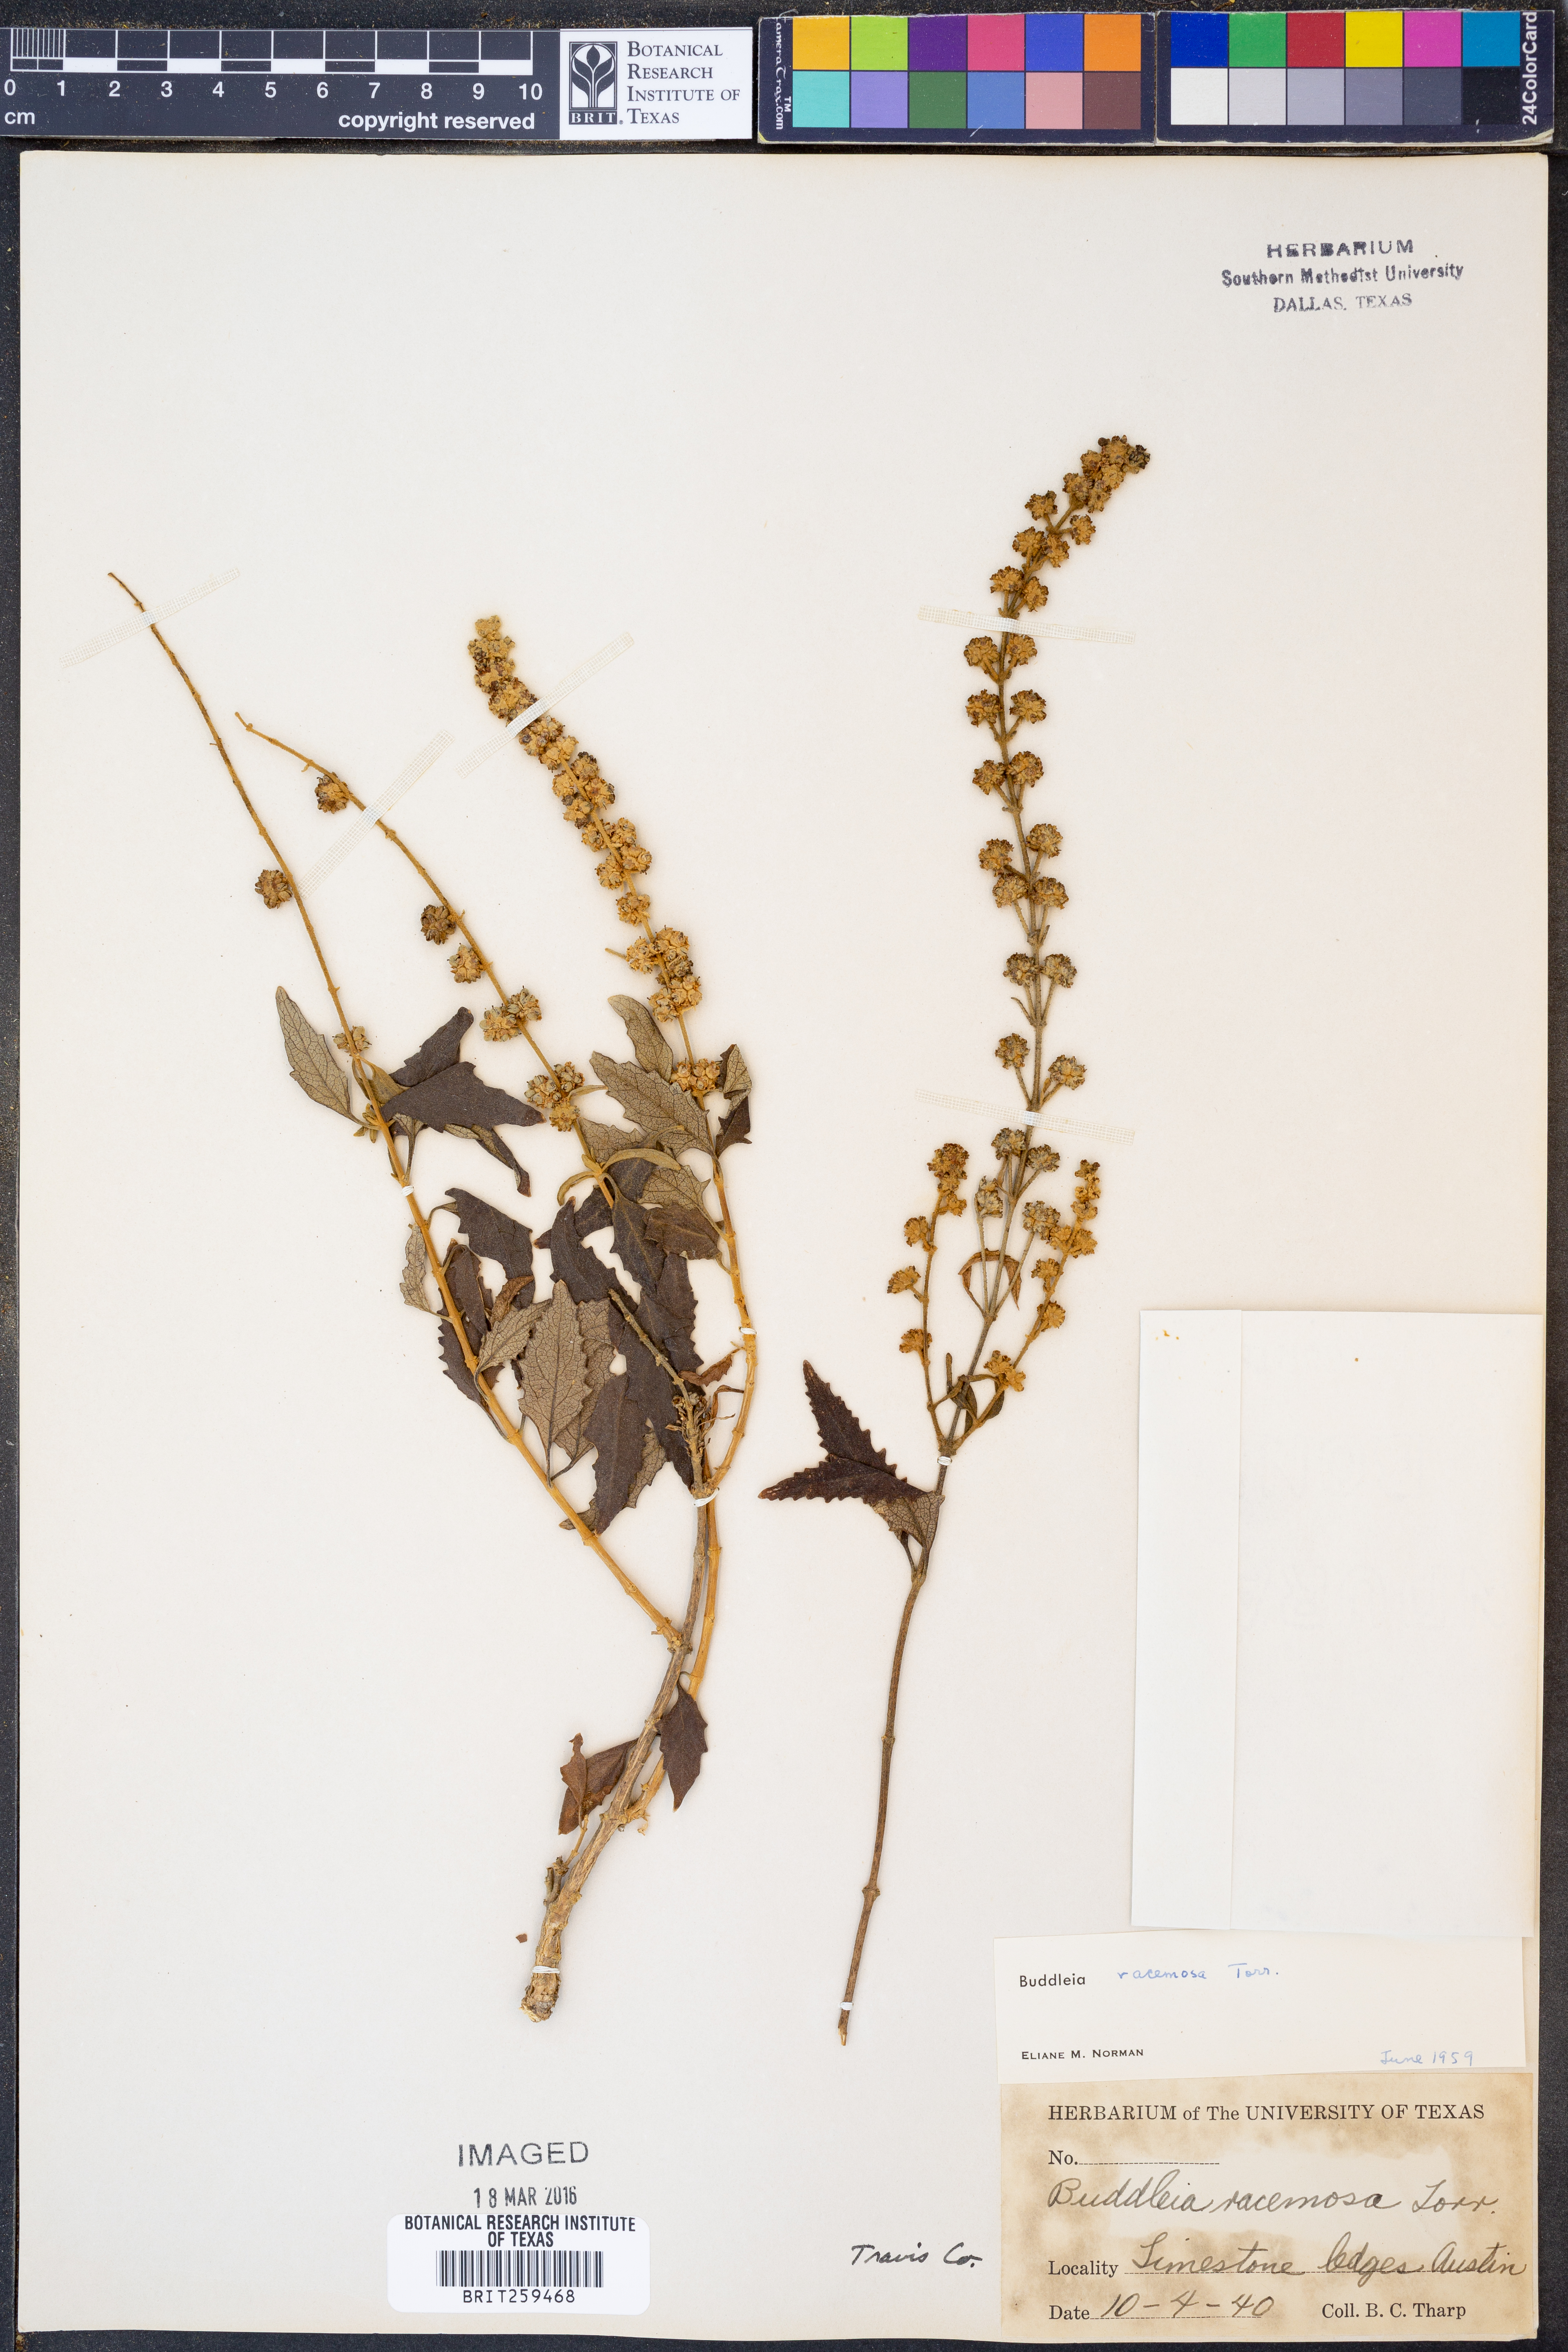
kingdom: Plantae
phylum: Tracheophyta
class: Magnoliopsida
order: Lamiales
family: Scrophulariaceae
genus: Buddleja
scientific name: Buddleja racemosa
